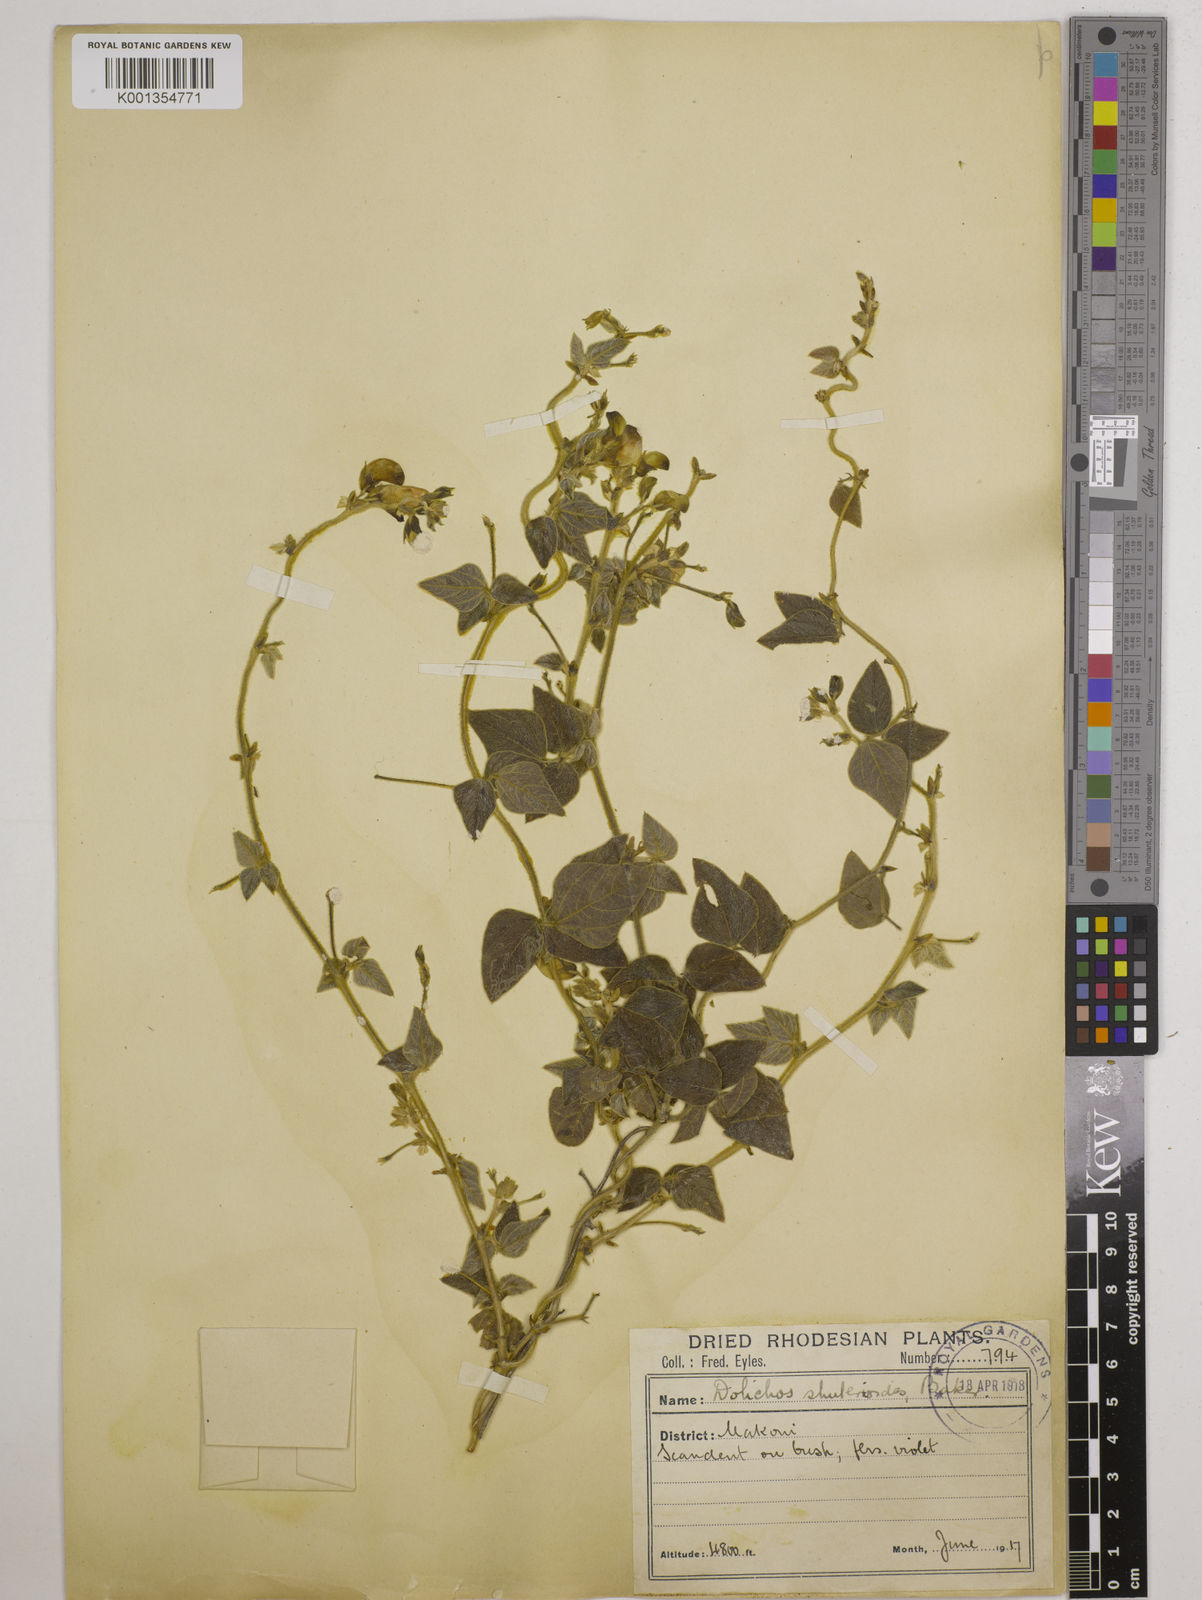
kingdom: Plantae
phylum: Tracheophyta
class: Magnoliopsida
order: Fabales
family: Fabaceae
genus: Dolichos
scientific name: Dolichos
